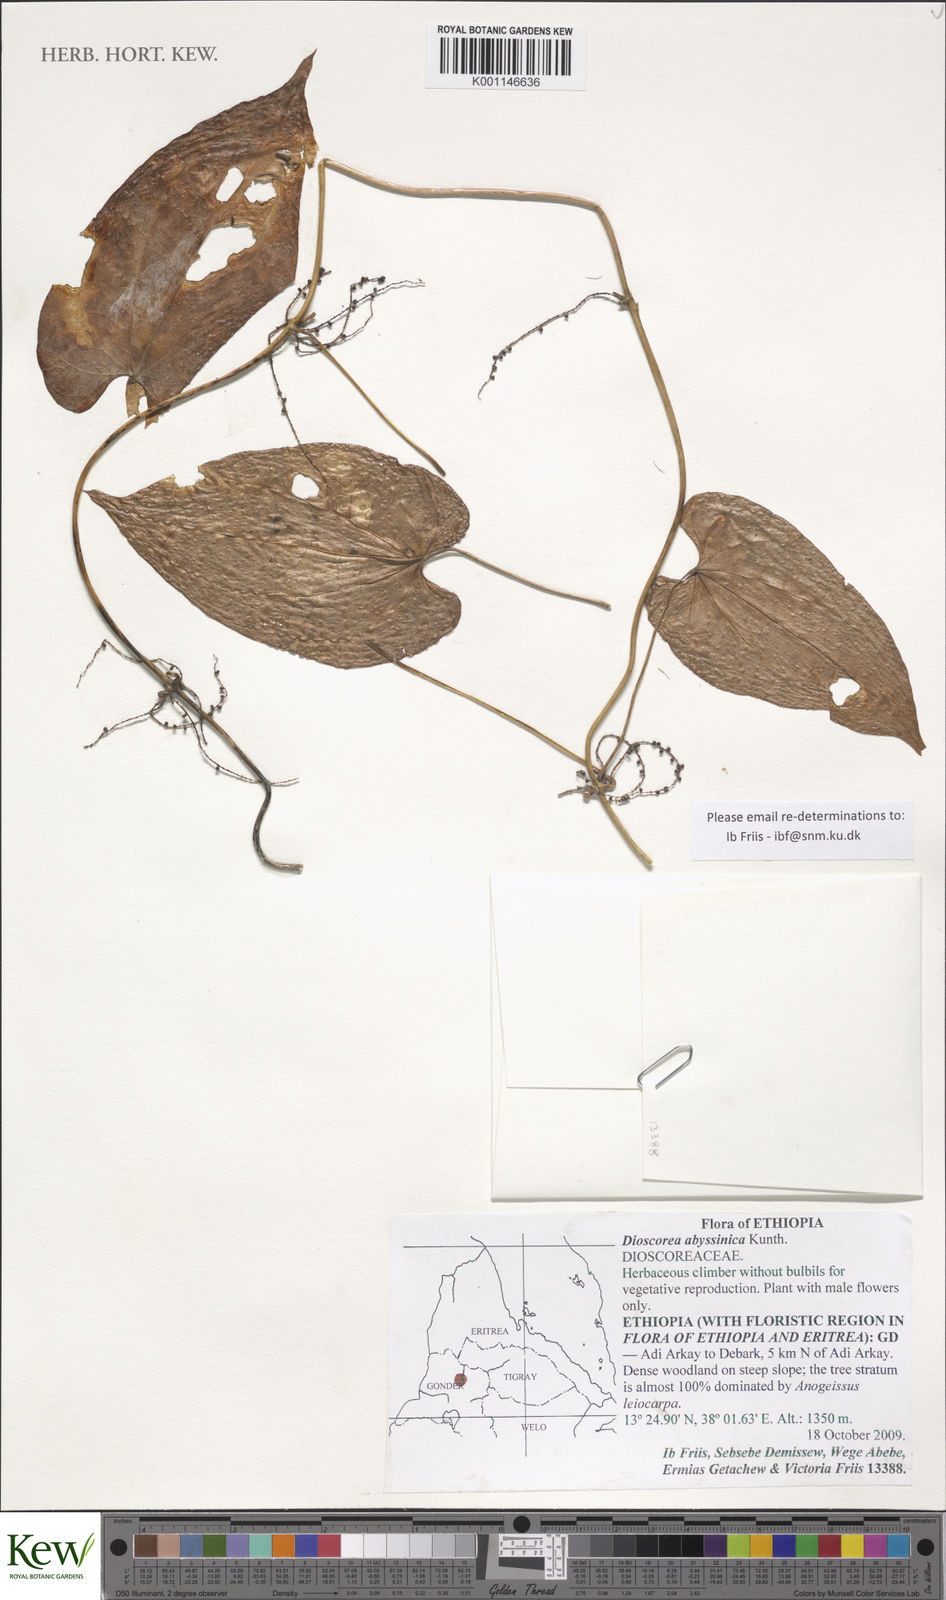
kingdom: Plantae
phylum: Tracheophyta
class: Liliopsida
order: Dioscoreales
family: Dioscoreaceae
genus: Dioscorea
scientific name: Dioscorea abyssinica
